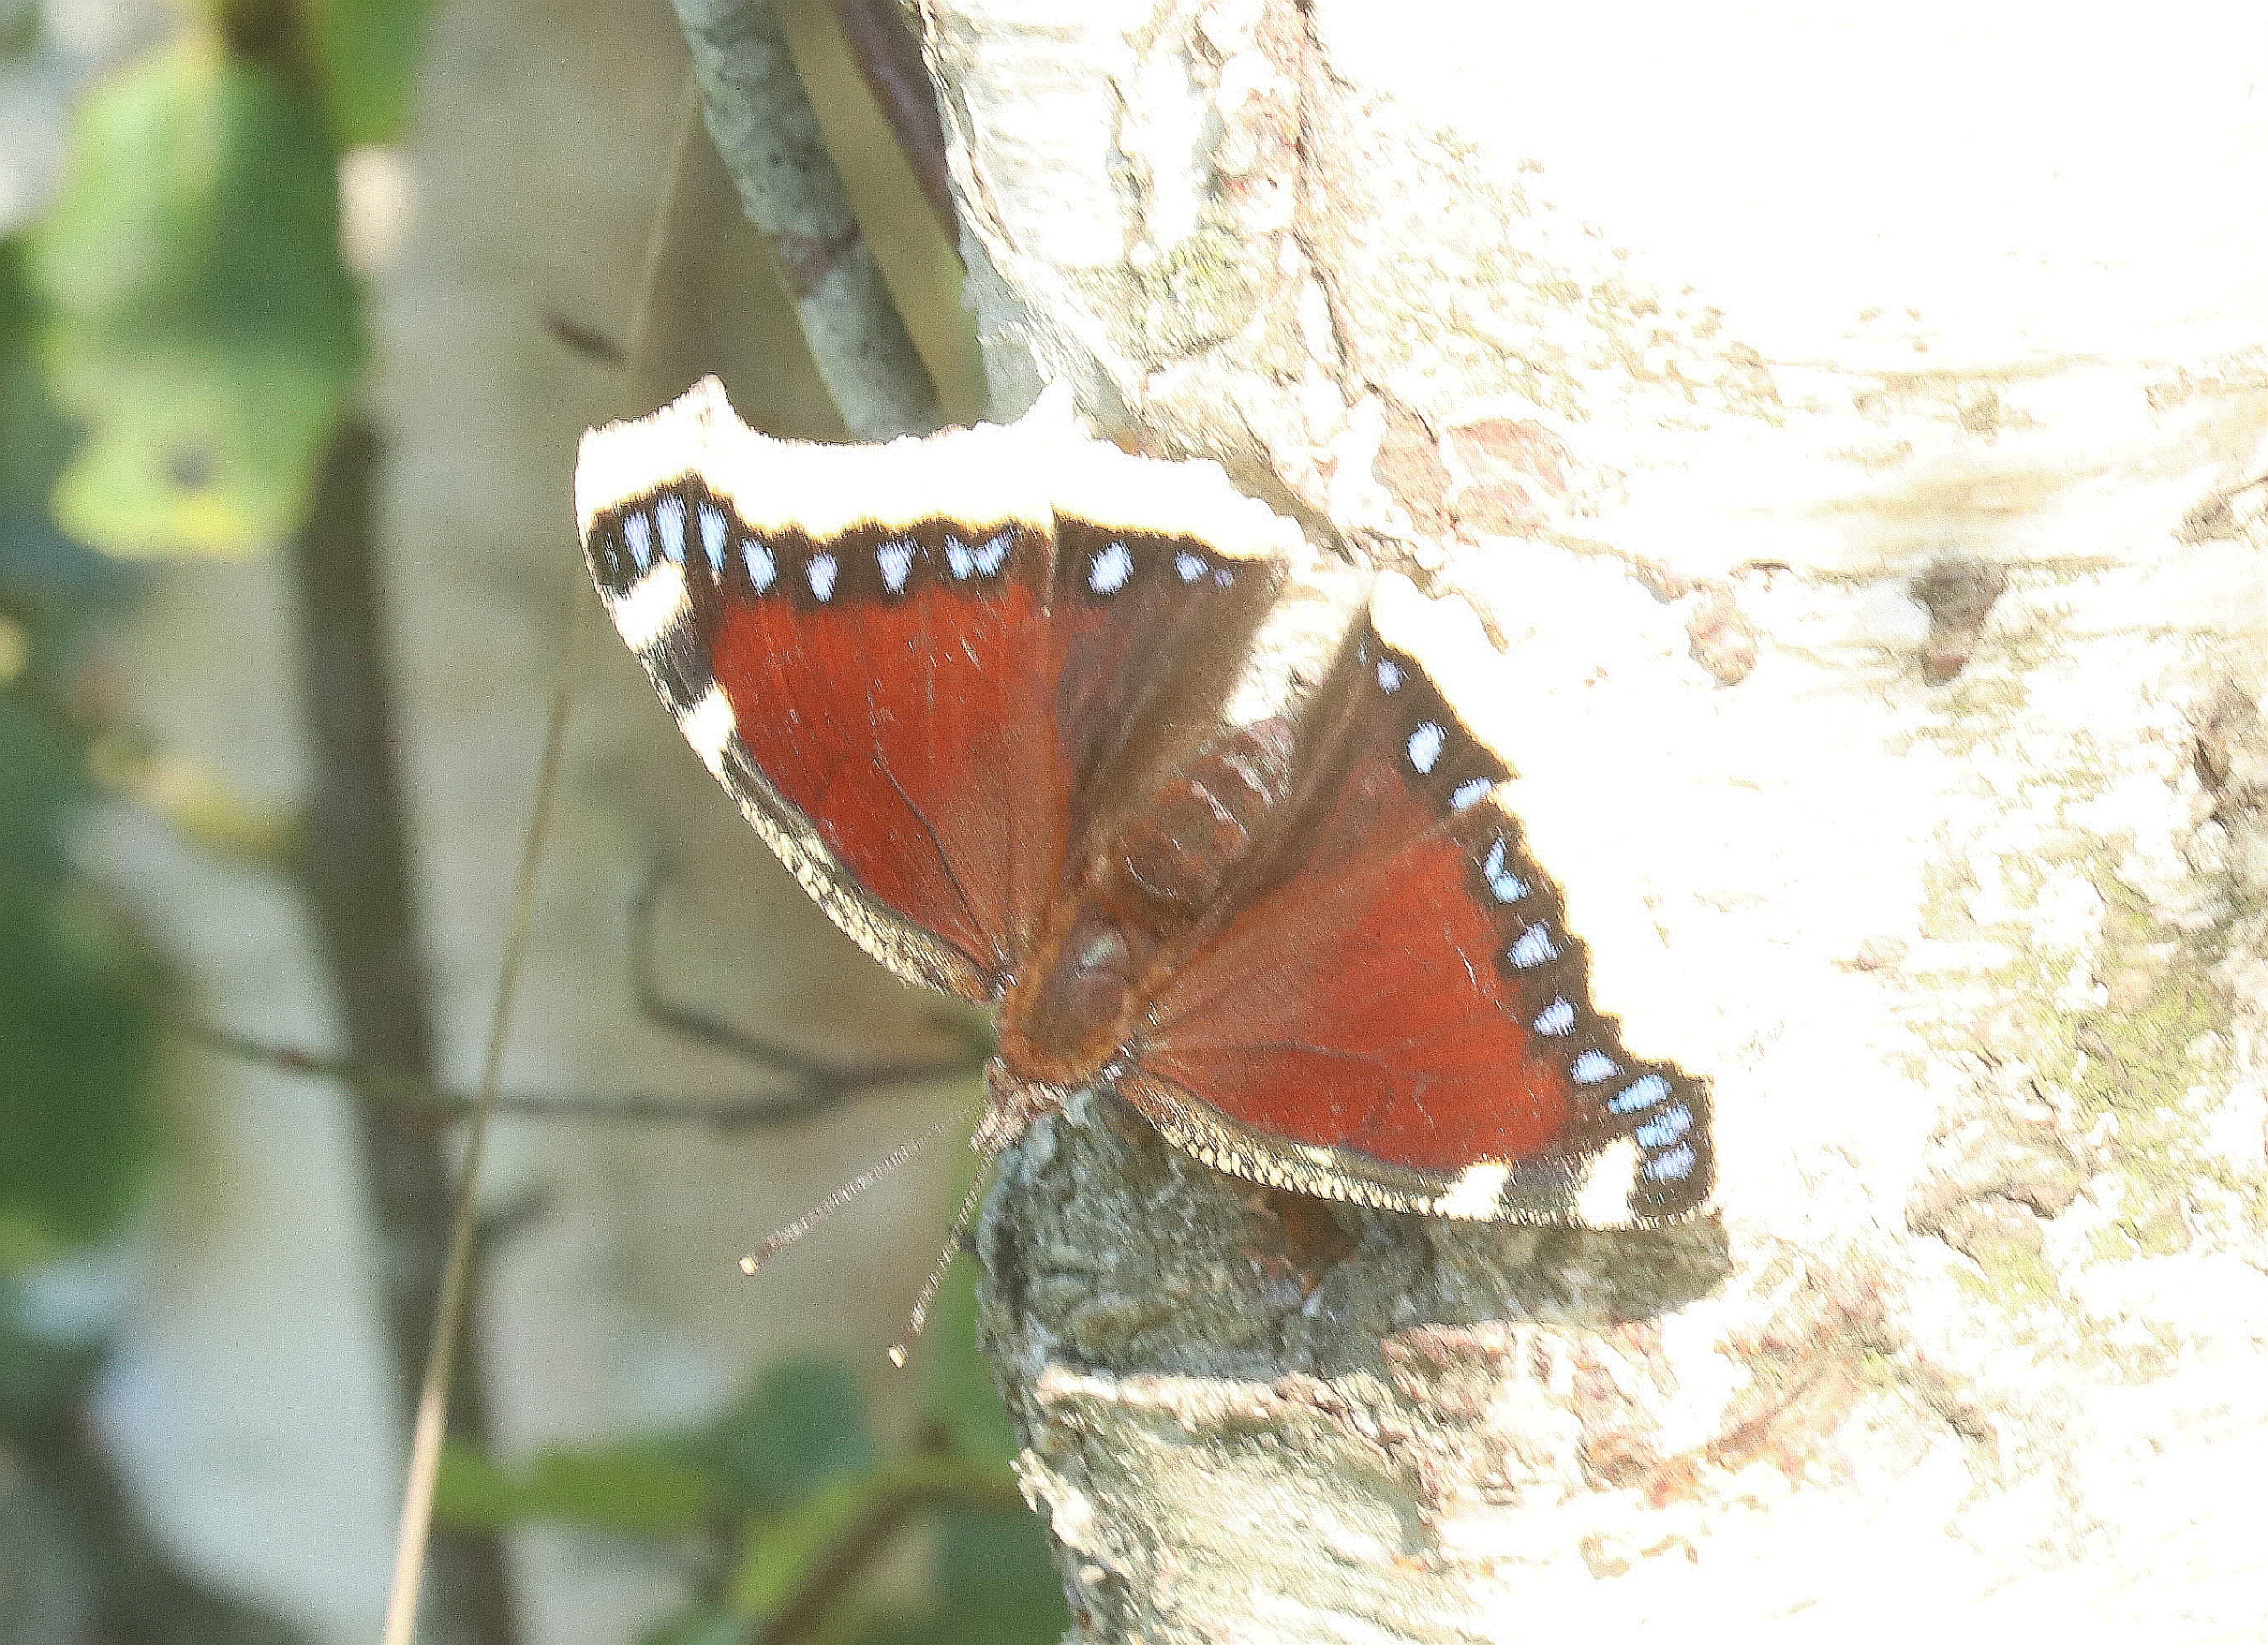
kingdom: Animalia
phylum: Arthropoda
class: Insecta
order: Lepidoptera
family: Nymphalidae
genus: Nymphalis
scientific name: Nymphalis antiopa
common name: Sørgekåbe
